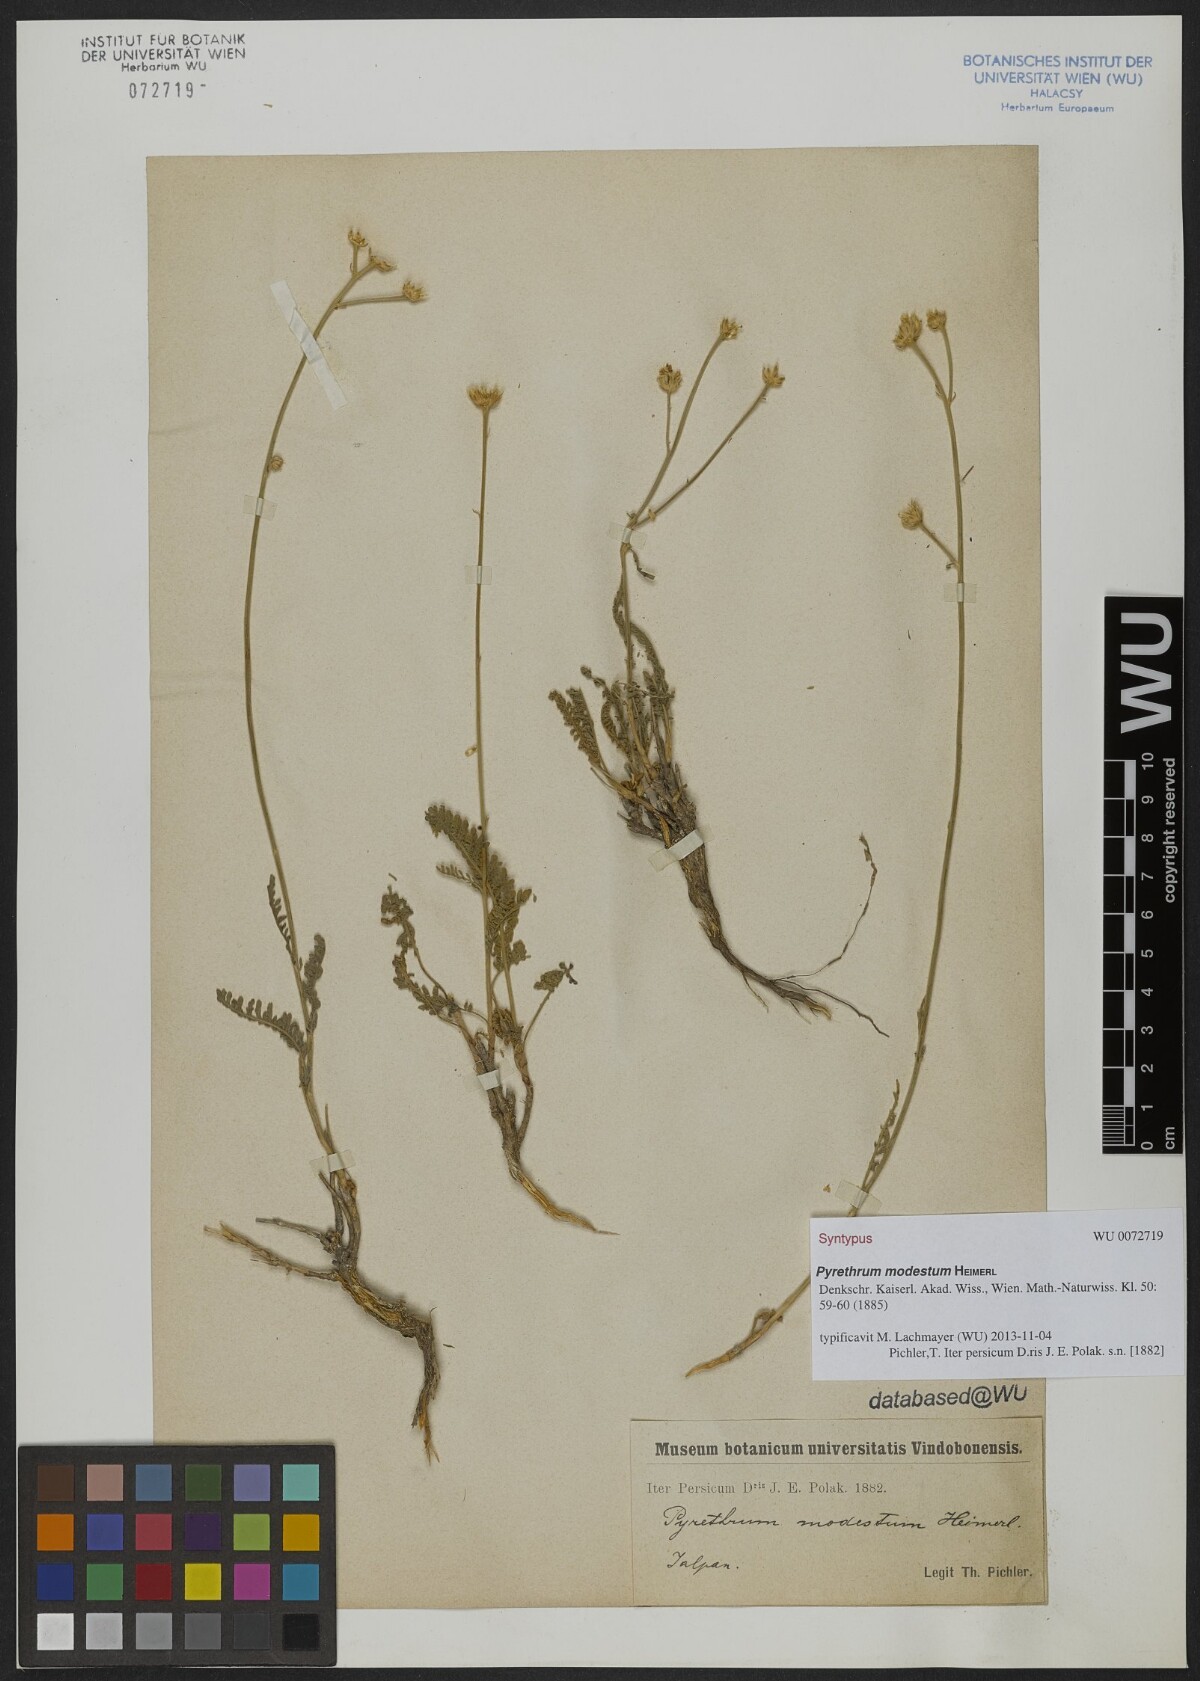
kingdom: Plantae
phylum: Tracheophyta
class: Magnoliopsida
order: Asterales
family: Asteraceae
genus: Tanacetum
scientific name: Tanacetum canescens
